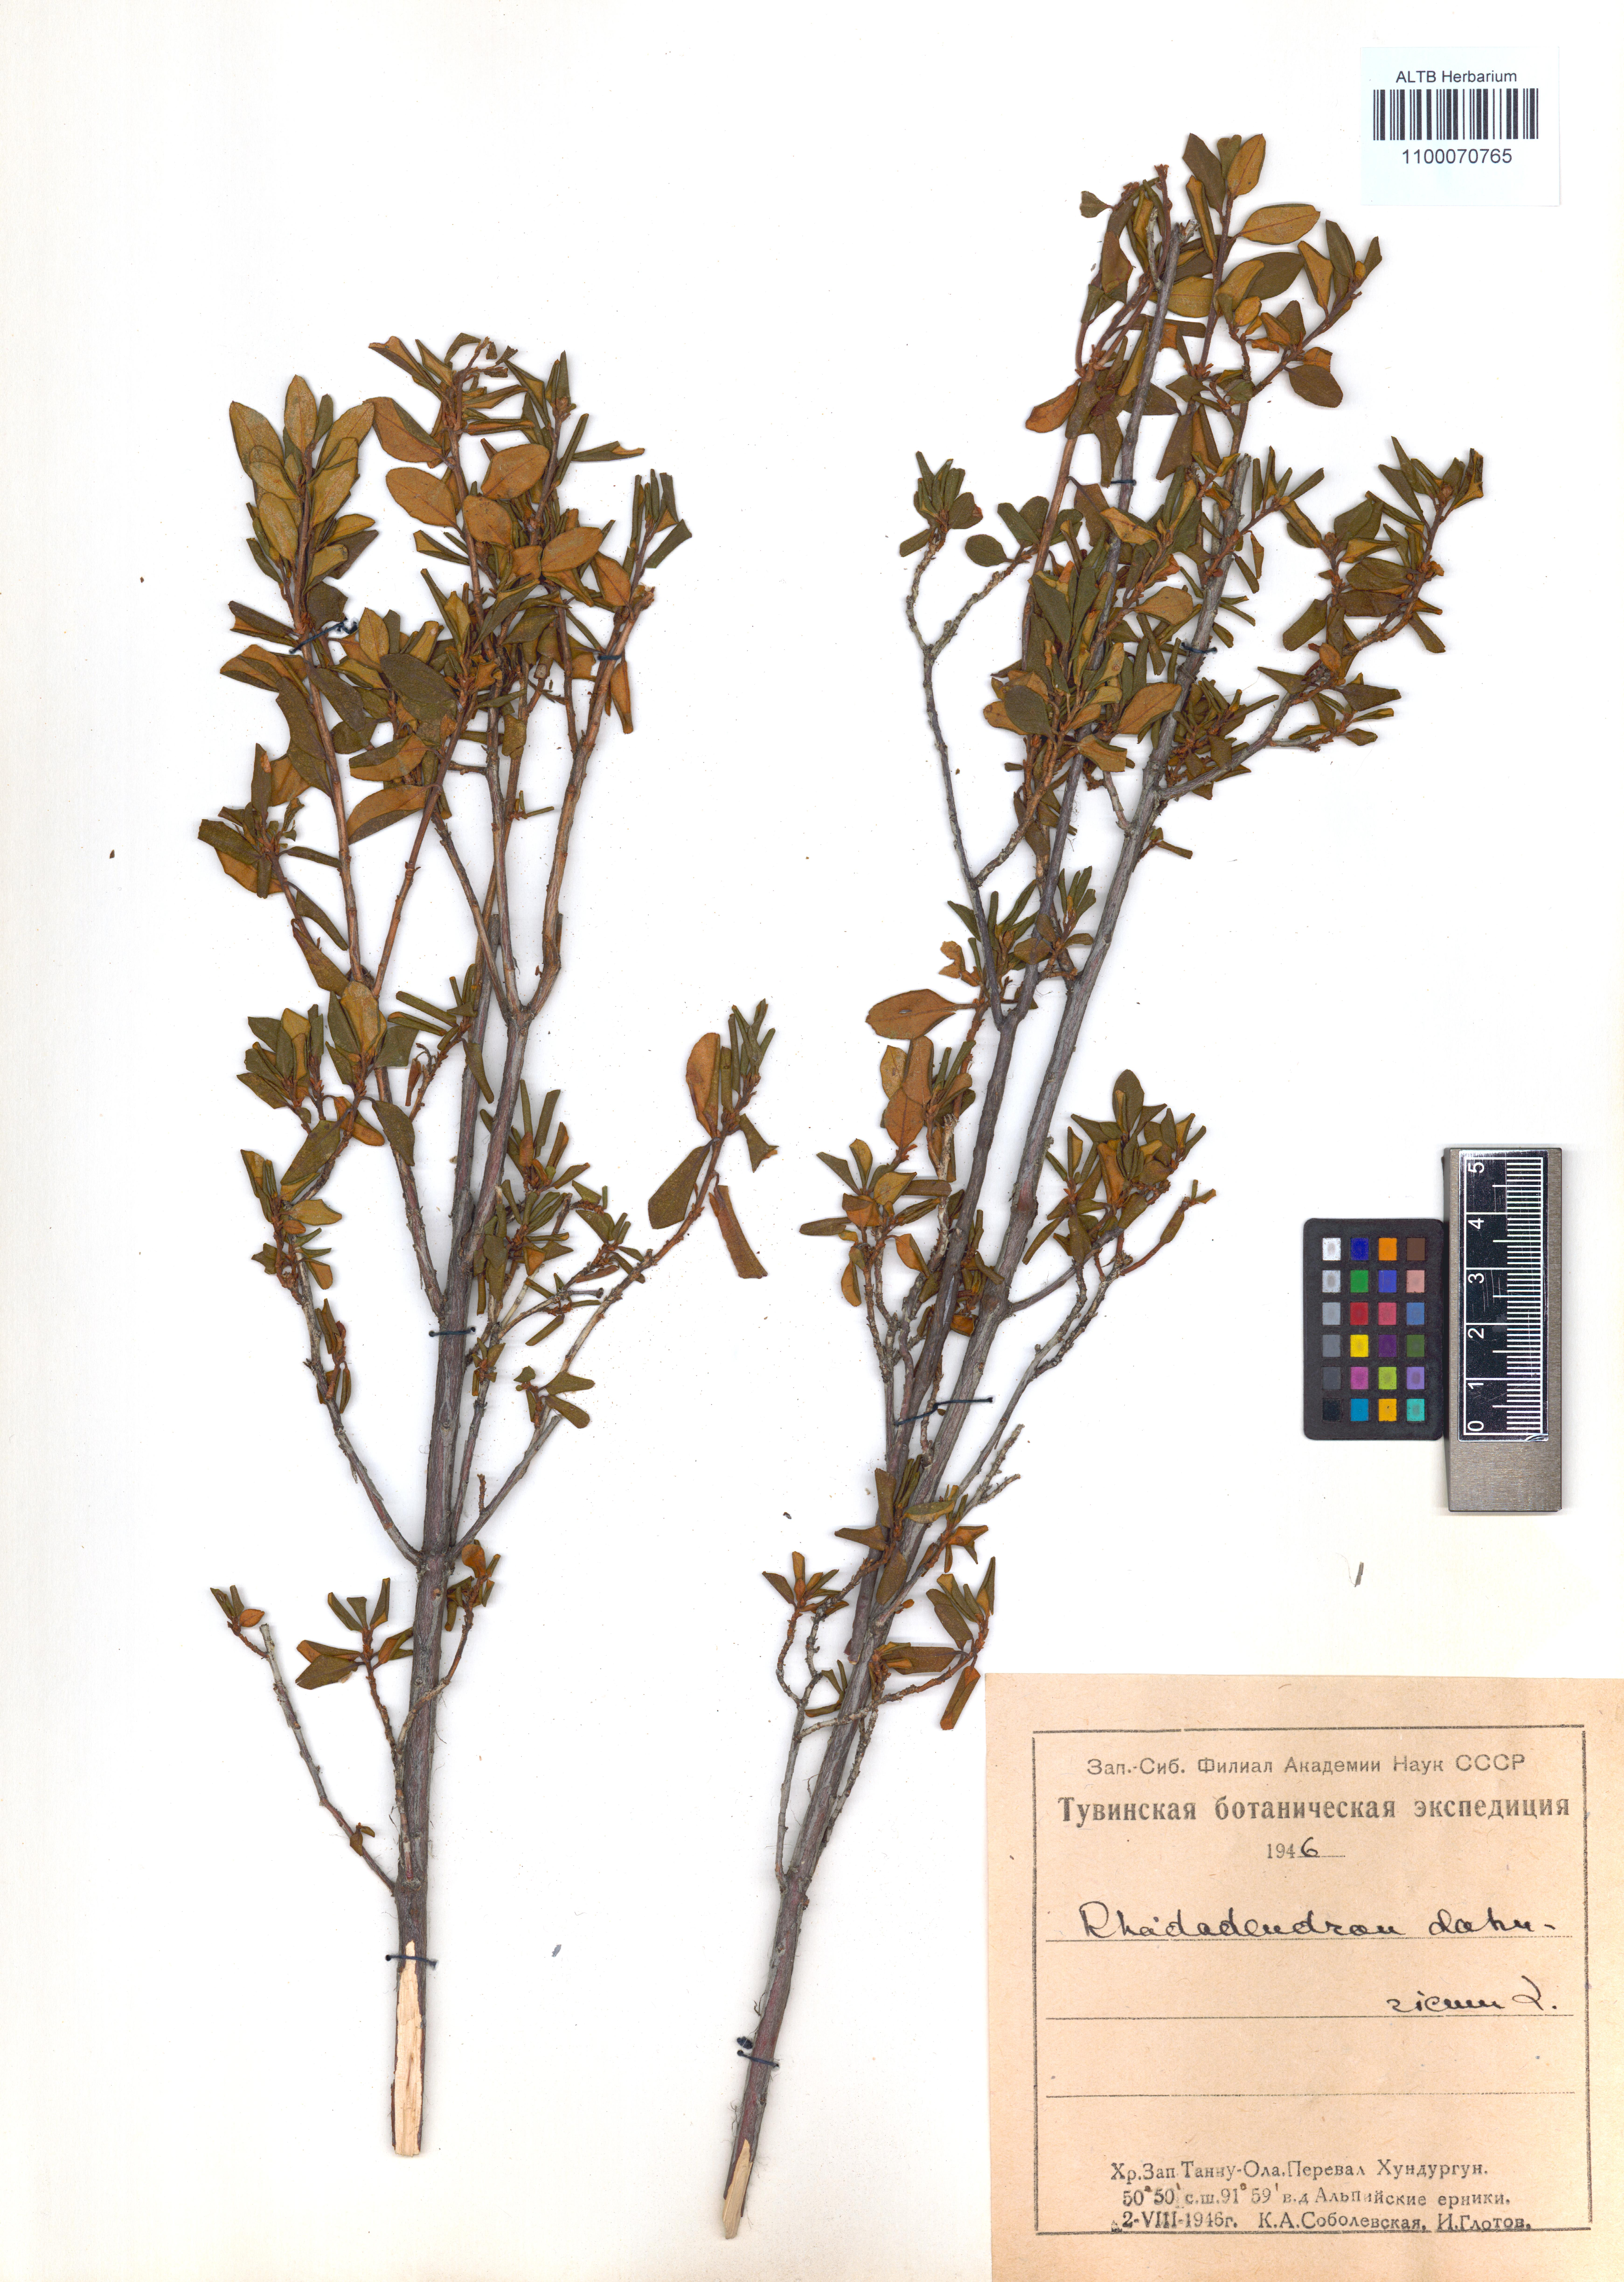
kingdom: Plantae
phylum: Tracheophyta
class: Magnoliopsida
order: Ericales
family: Ericaceae
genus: Rhododendron
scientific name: Rhododendron dauricum
